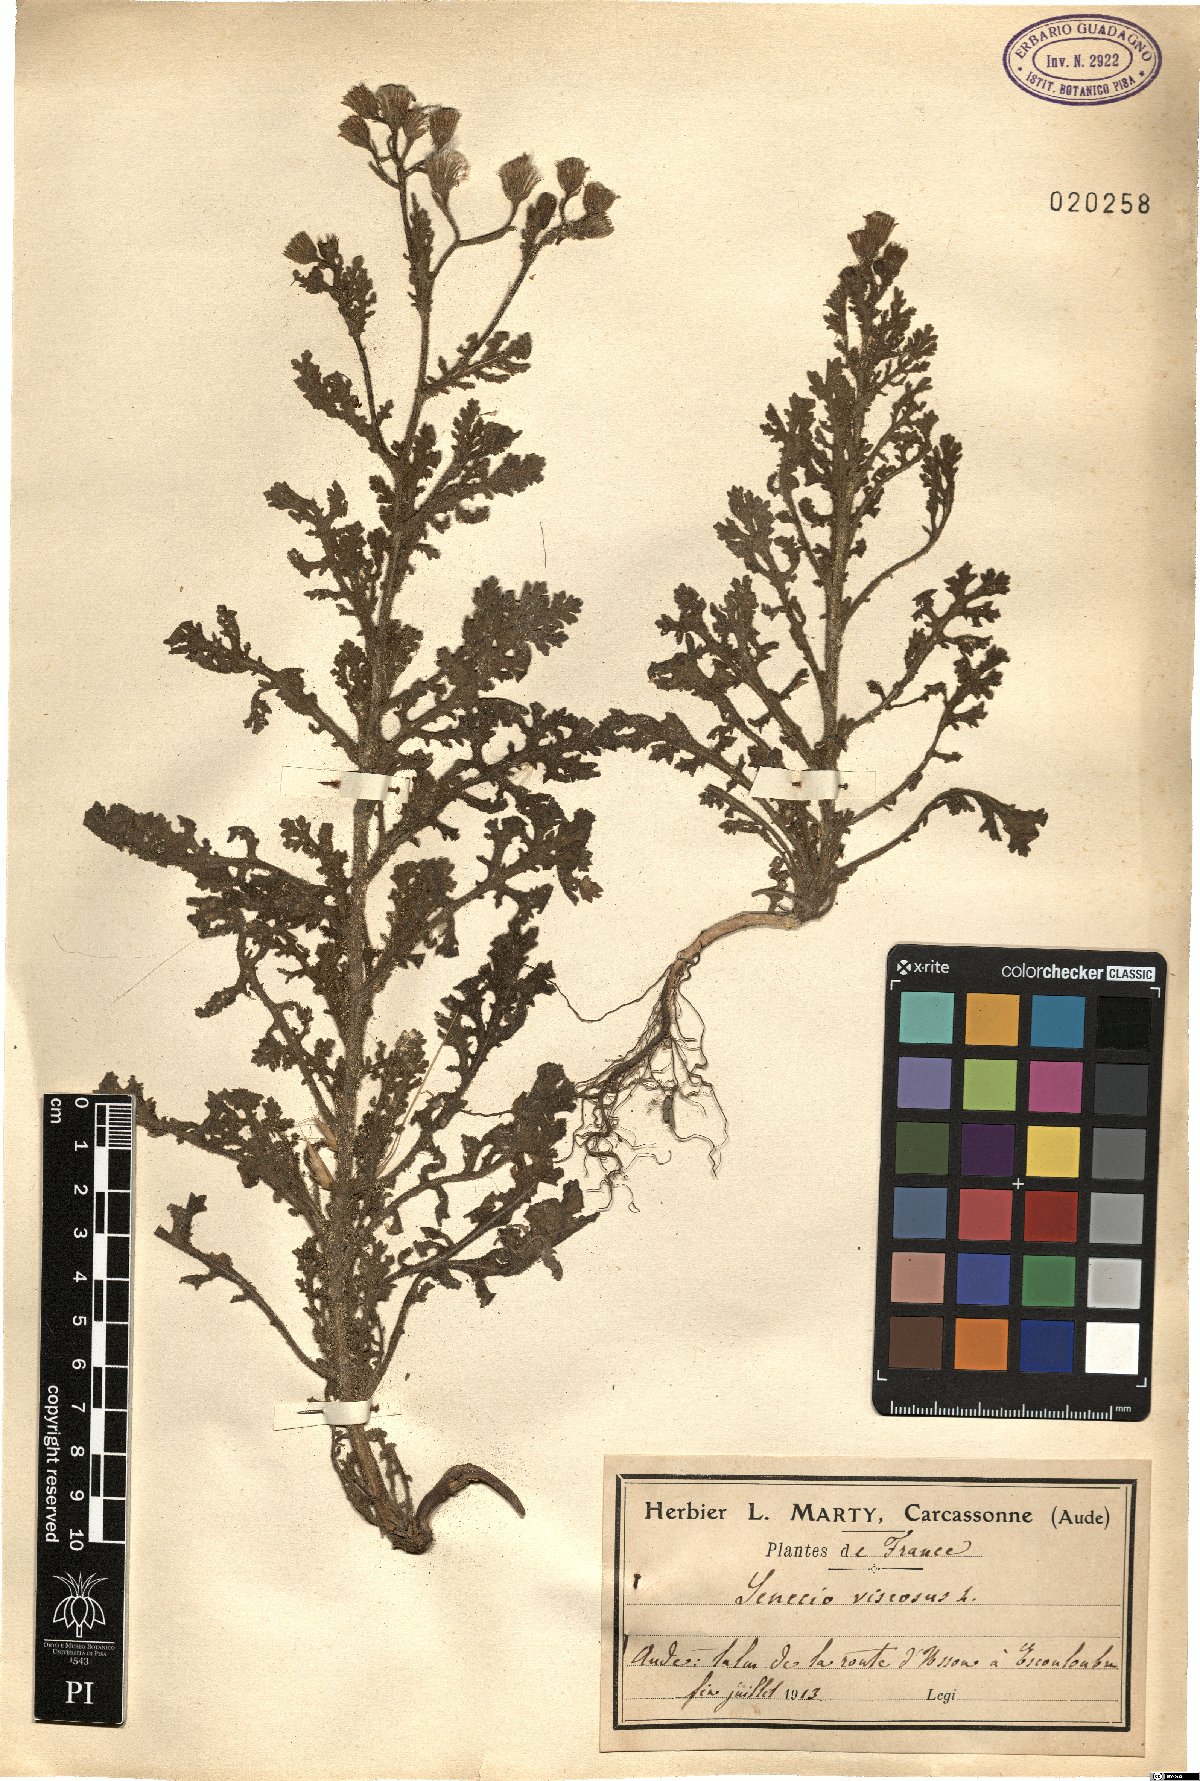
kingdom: Plantae
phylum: Tracheophyta
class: Magnoliopsida
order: Asterales
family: Asteraceae
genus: Senecio
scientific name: Senecio viscosus
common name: Sticky groundsel
